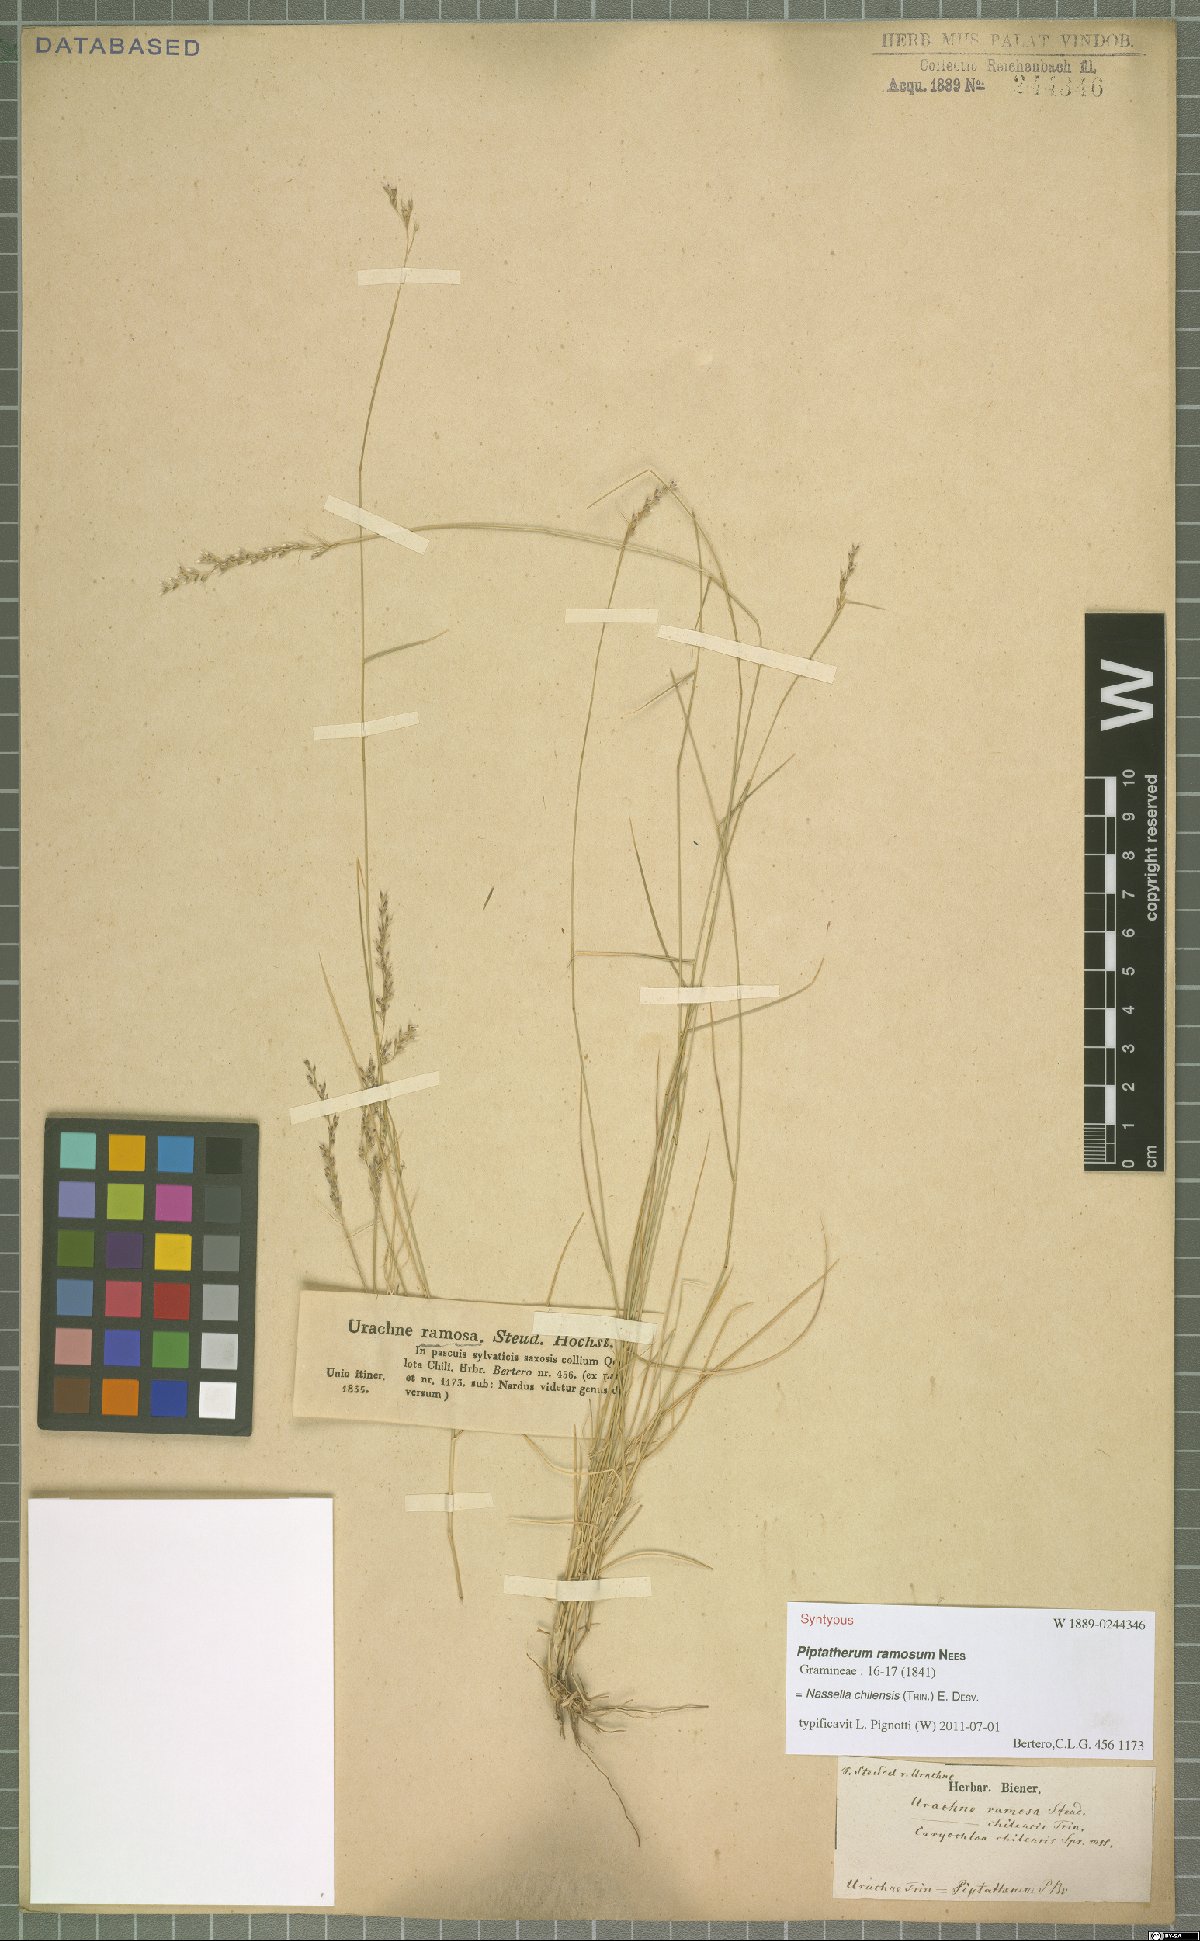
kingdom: Plantae
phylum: Tracheophyta
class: Liliopsida
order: Poales
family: Poaceae
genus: Nassella
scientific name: Nassella chilensis
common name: Chilean needlegrass
